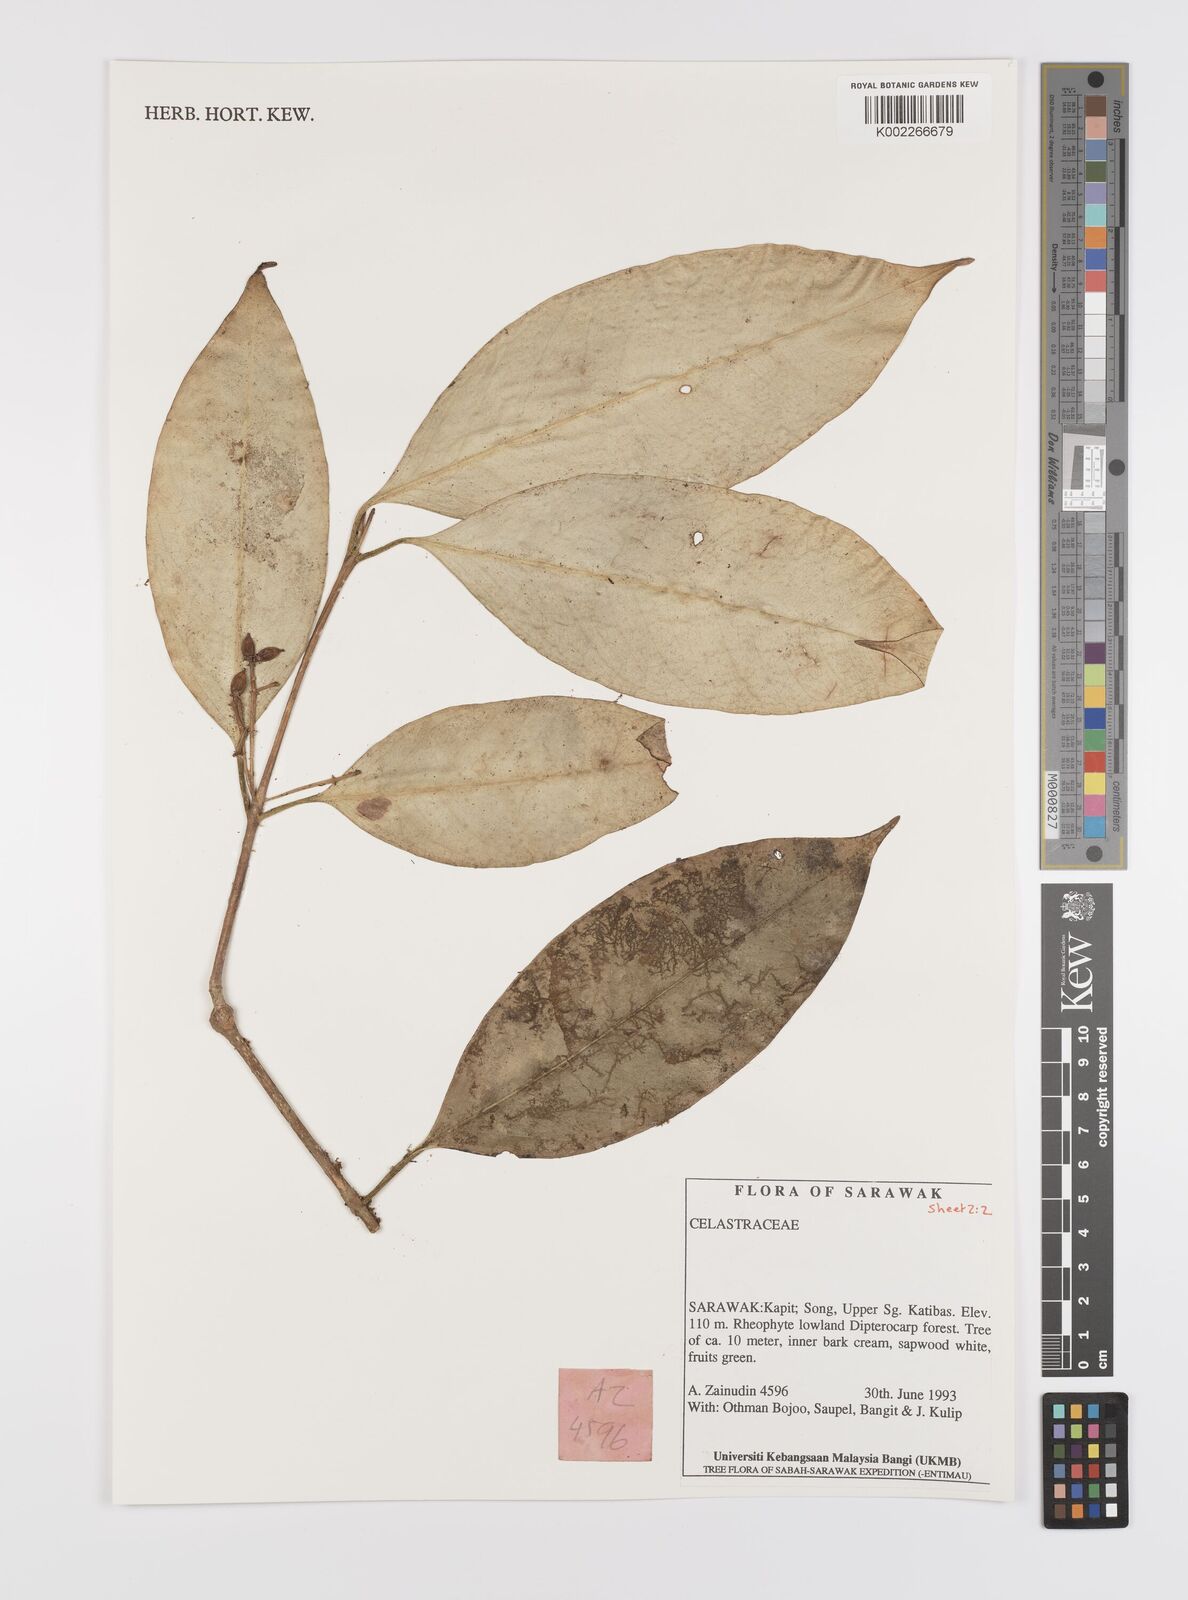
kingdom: Plantae
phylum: Tracheophyta
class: Magnoliopsida
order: Celastrales
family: Celastraceae
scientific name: Celastraceae
